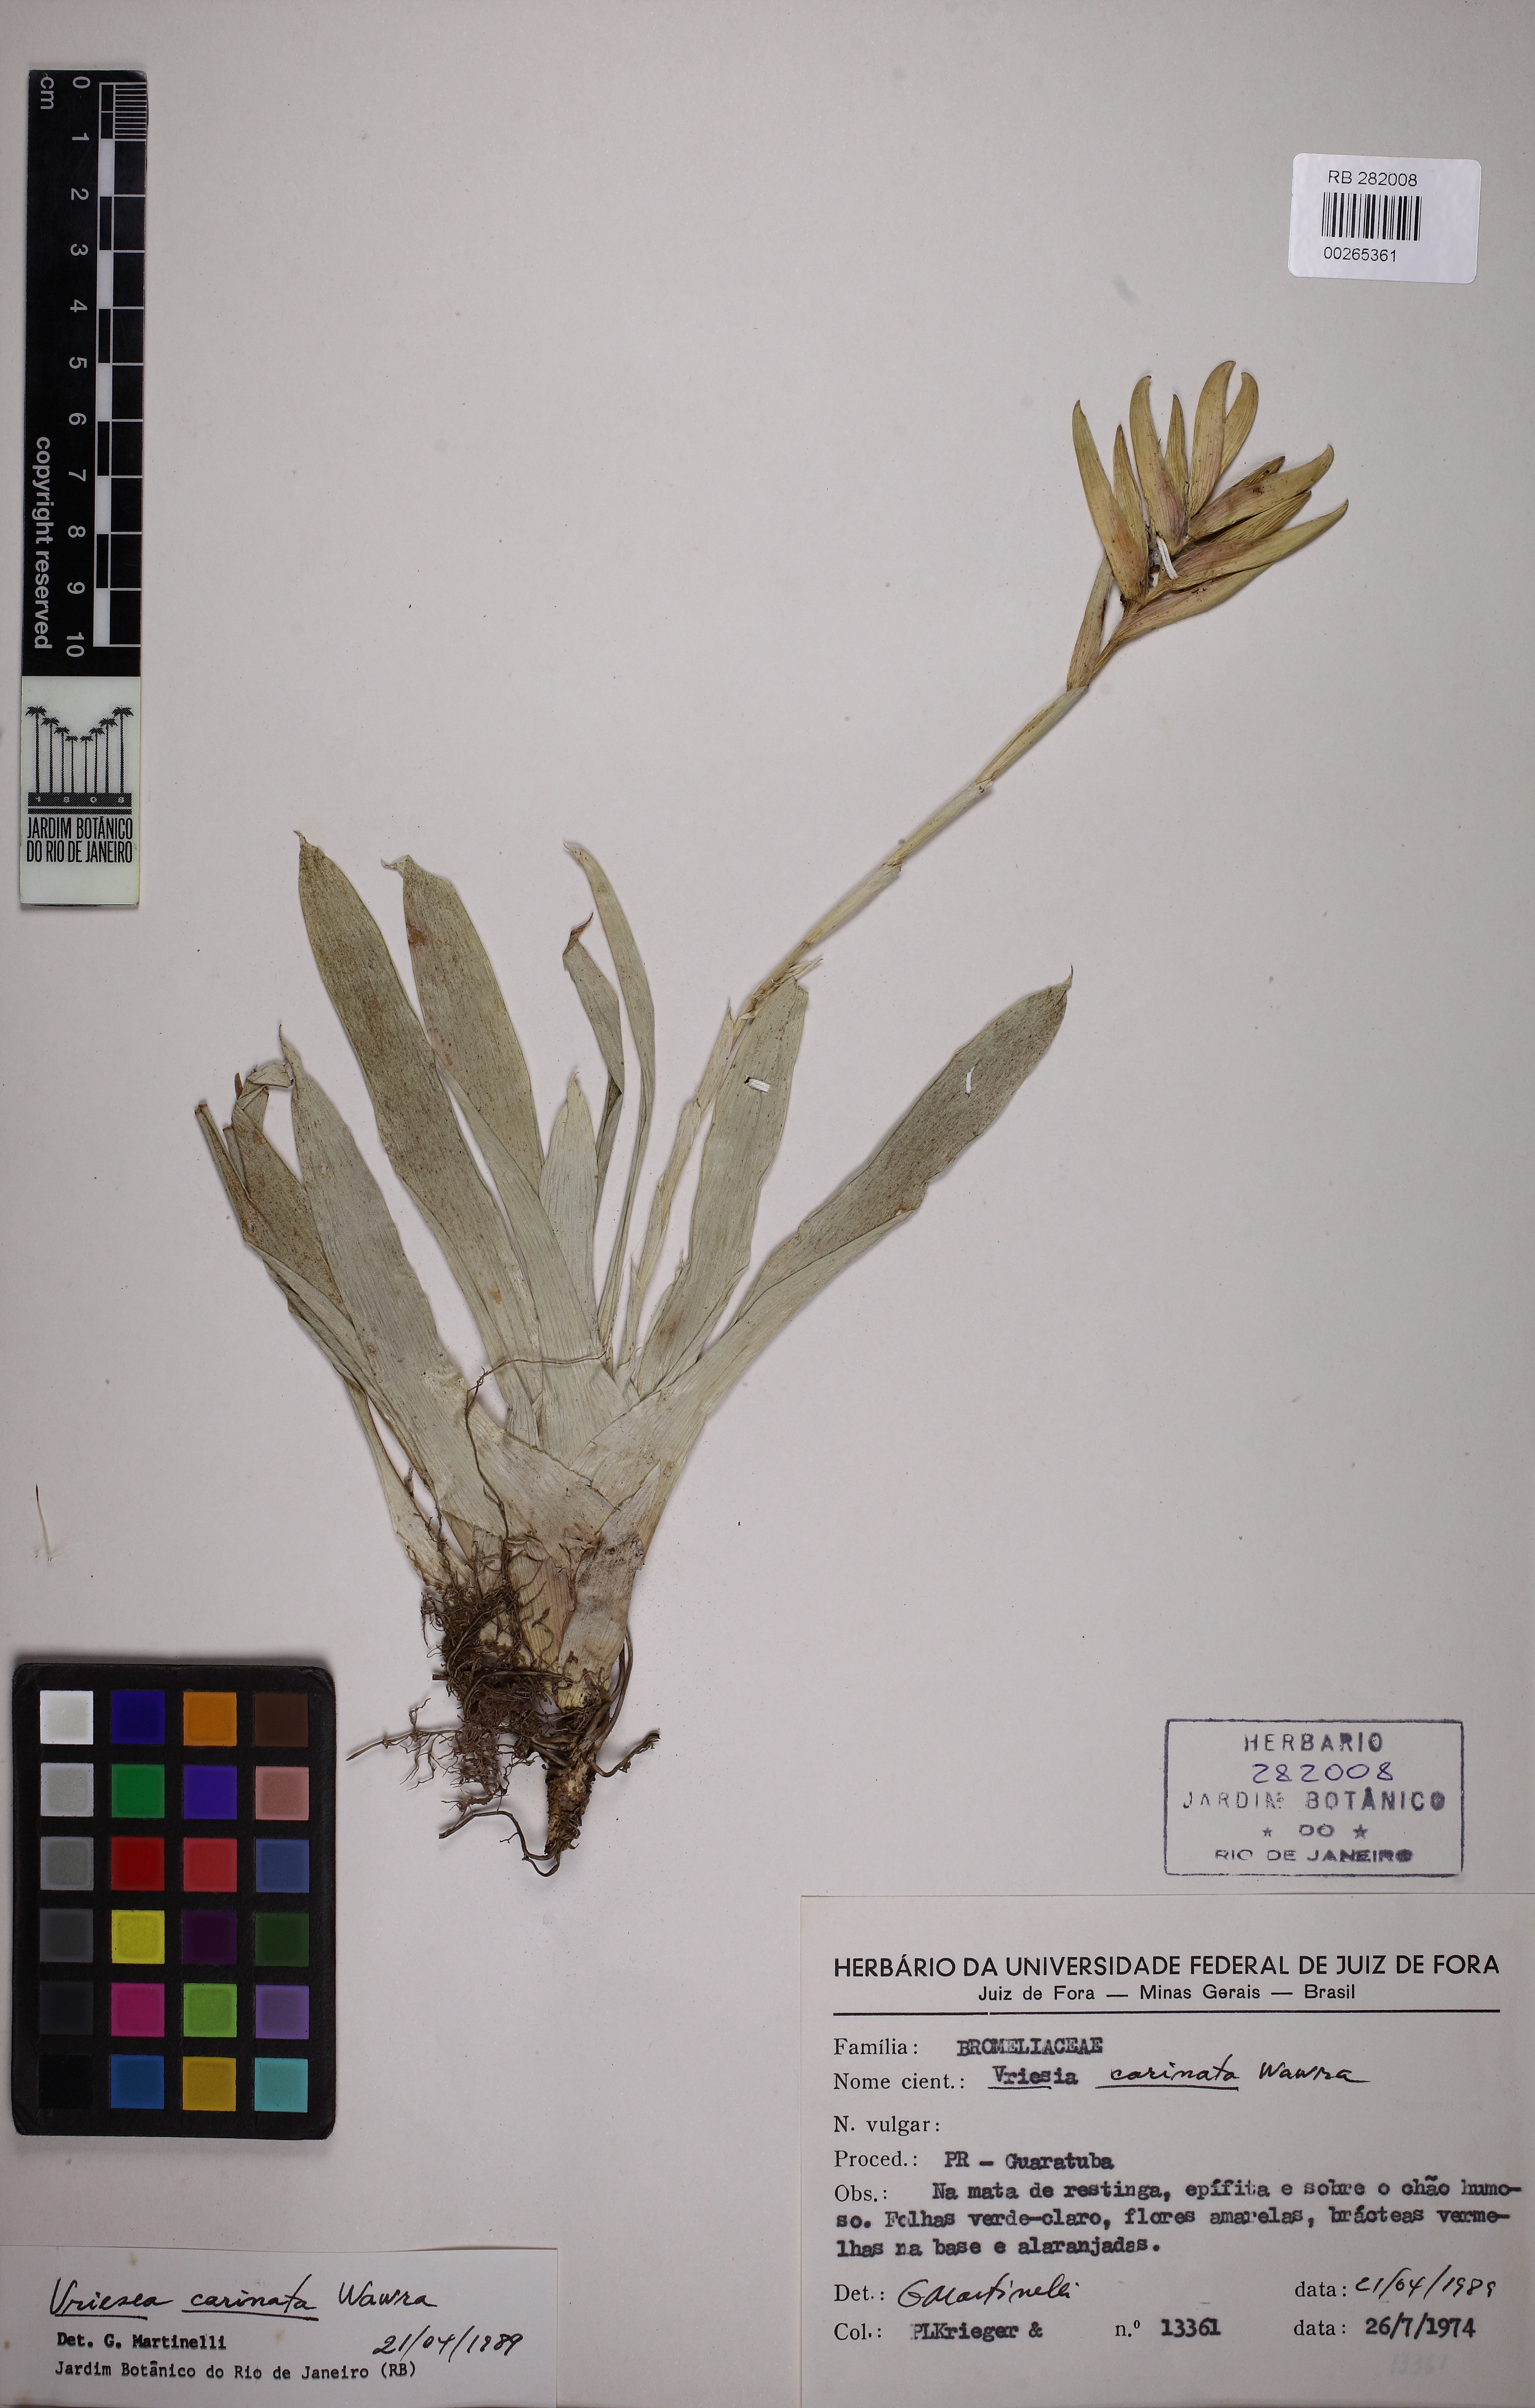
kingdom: Plantae
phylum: Tracheophyta
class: Liliopsida
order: Poales
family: Bromeliaceae
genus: Vriesea
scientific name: Vriesea carinata
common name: Lobster-claws
